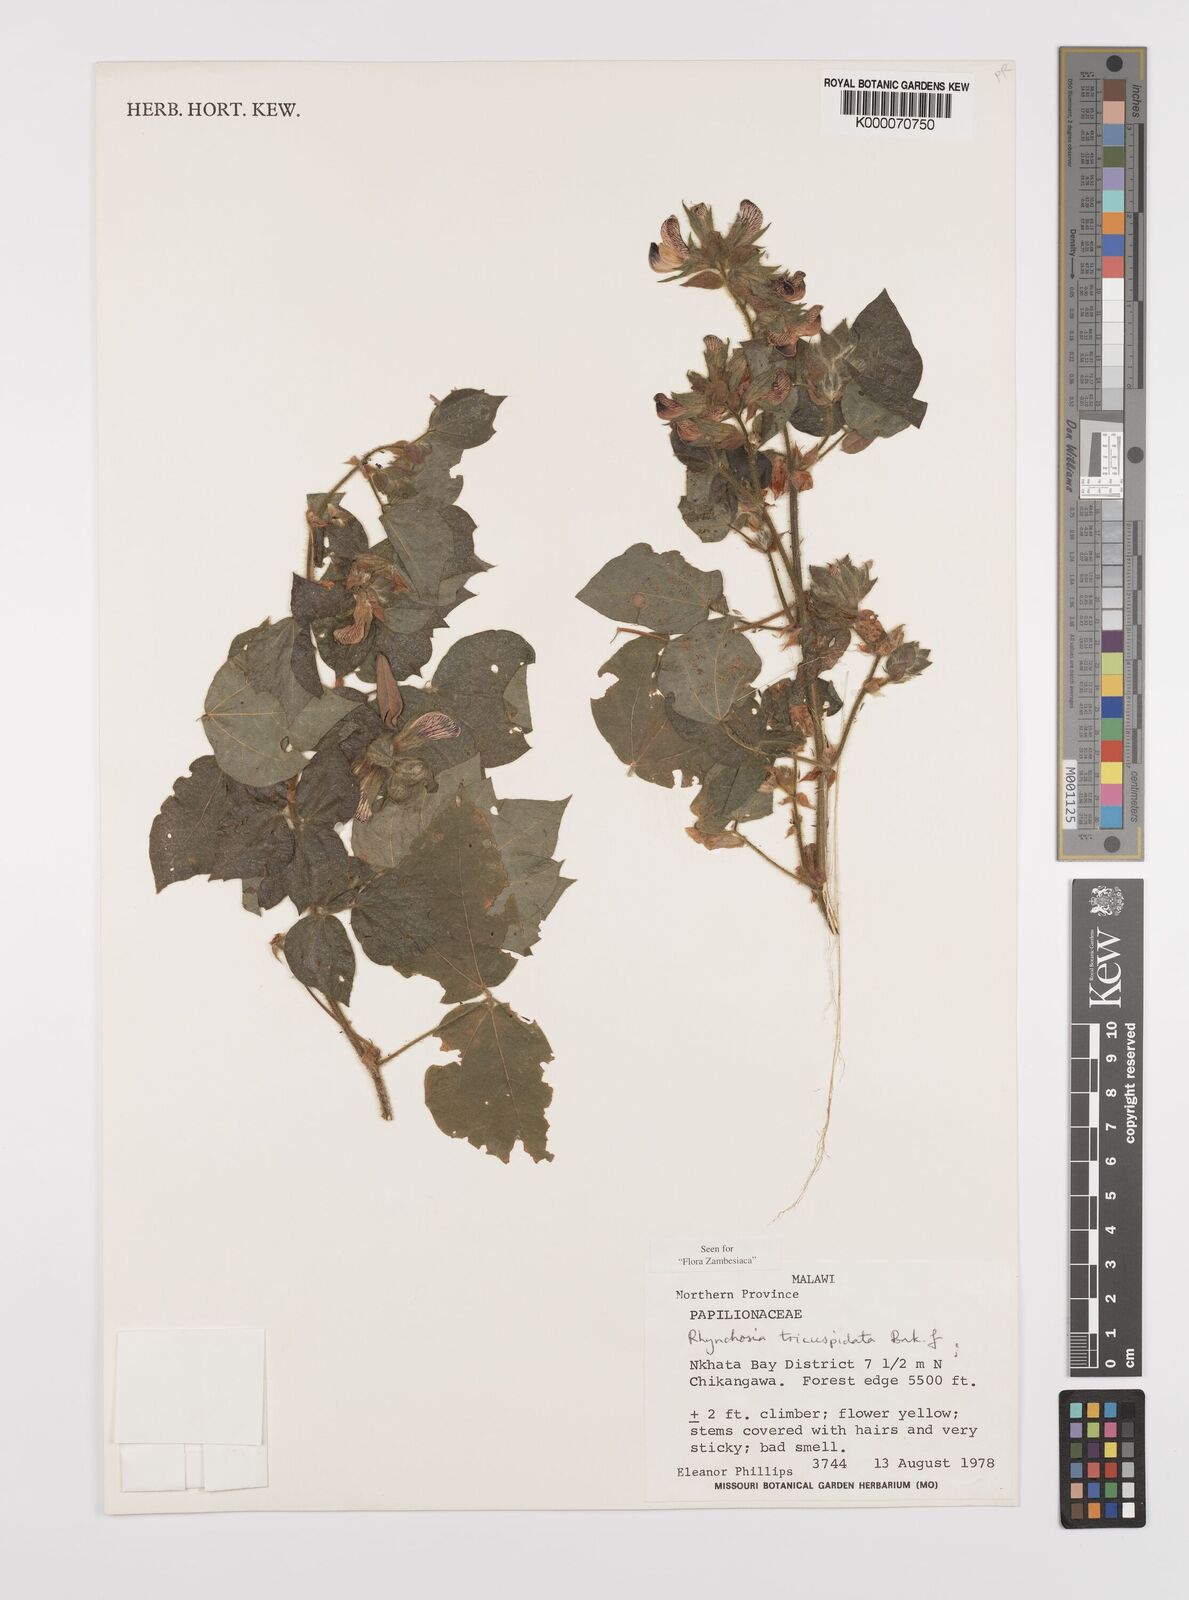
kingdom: Plantae
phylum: Tracheophyta
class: Magnoliopsida
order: Fabales
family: Fabaceae
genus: Rhynchosia
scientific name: Rhynchosia tricuspidata
